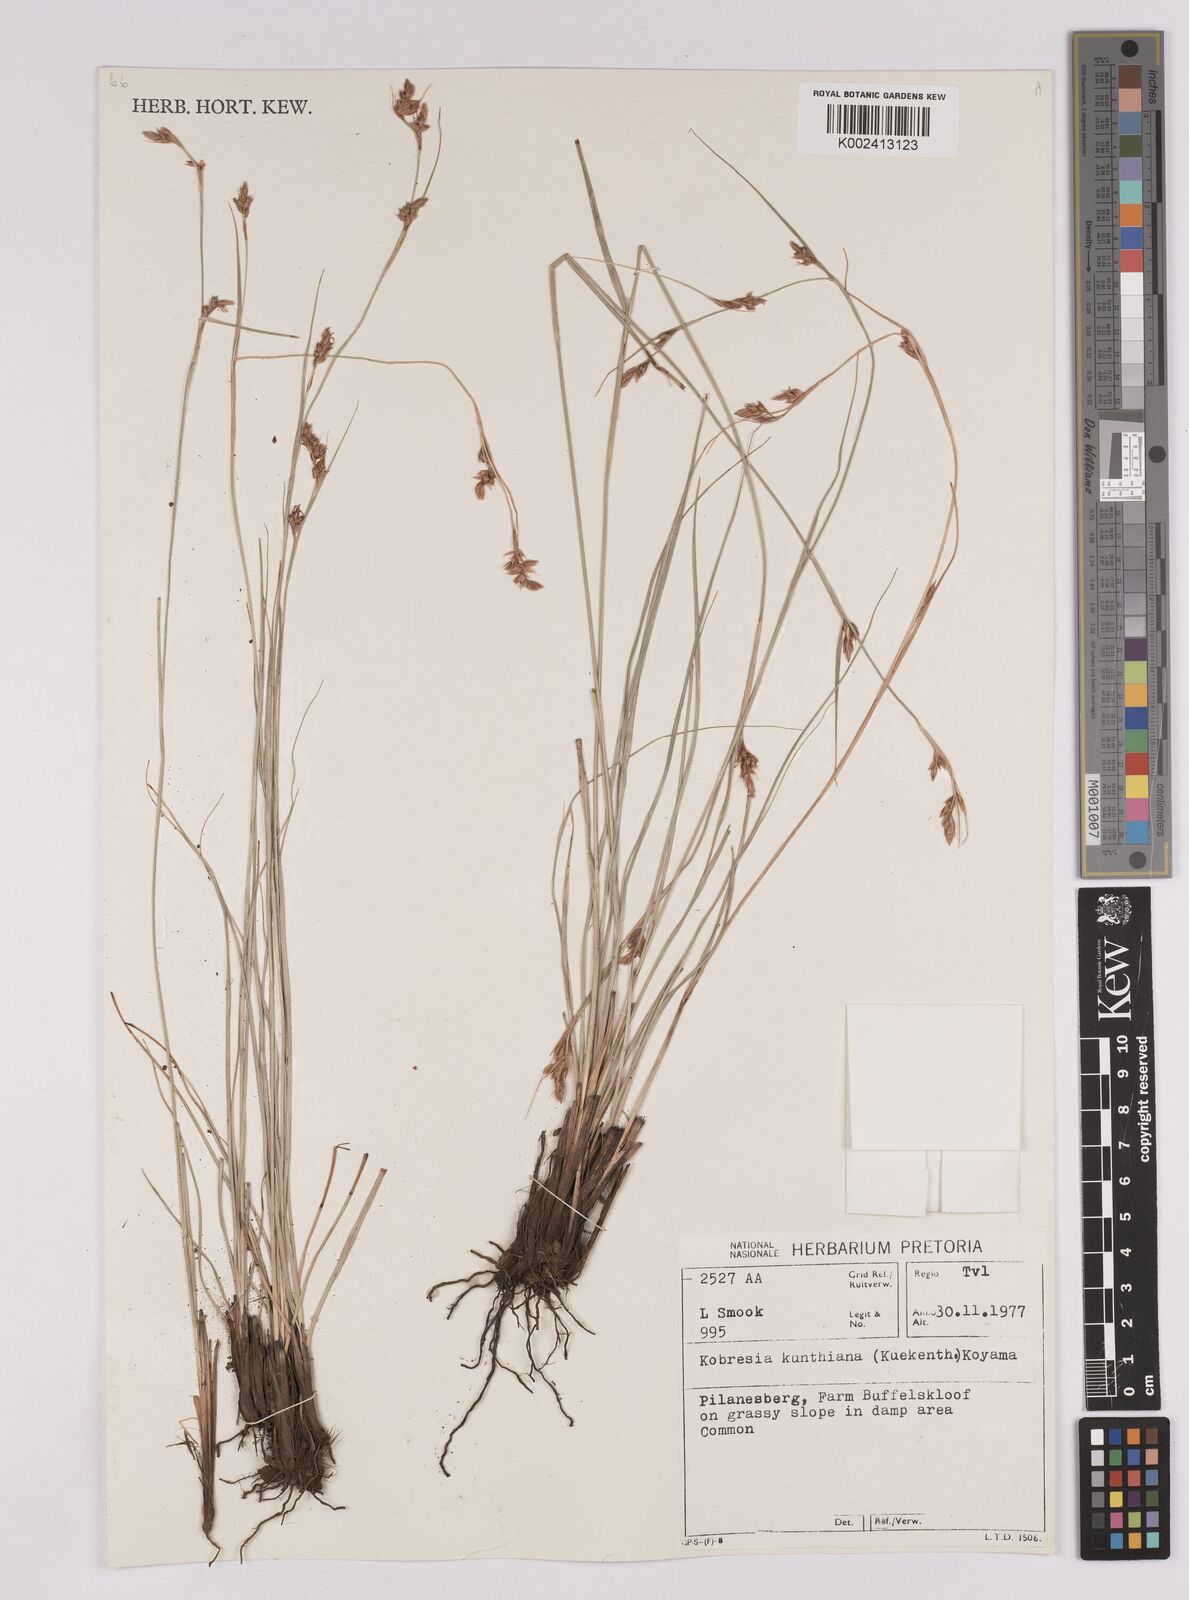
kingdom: Plantae
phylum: Tracheophyta
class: Liliopsida
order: Poales
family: Cyperaceae
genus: Carex
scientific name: Carex spartea
